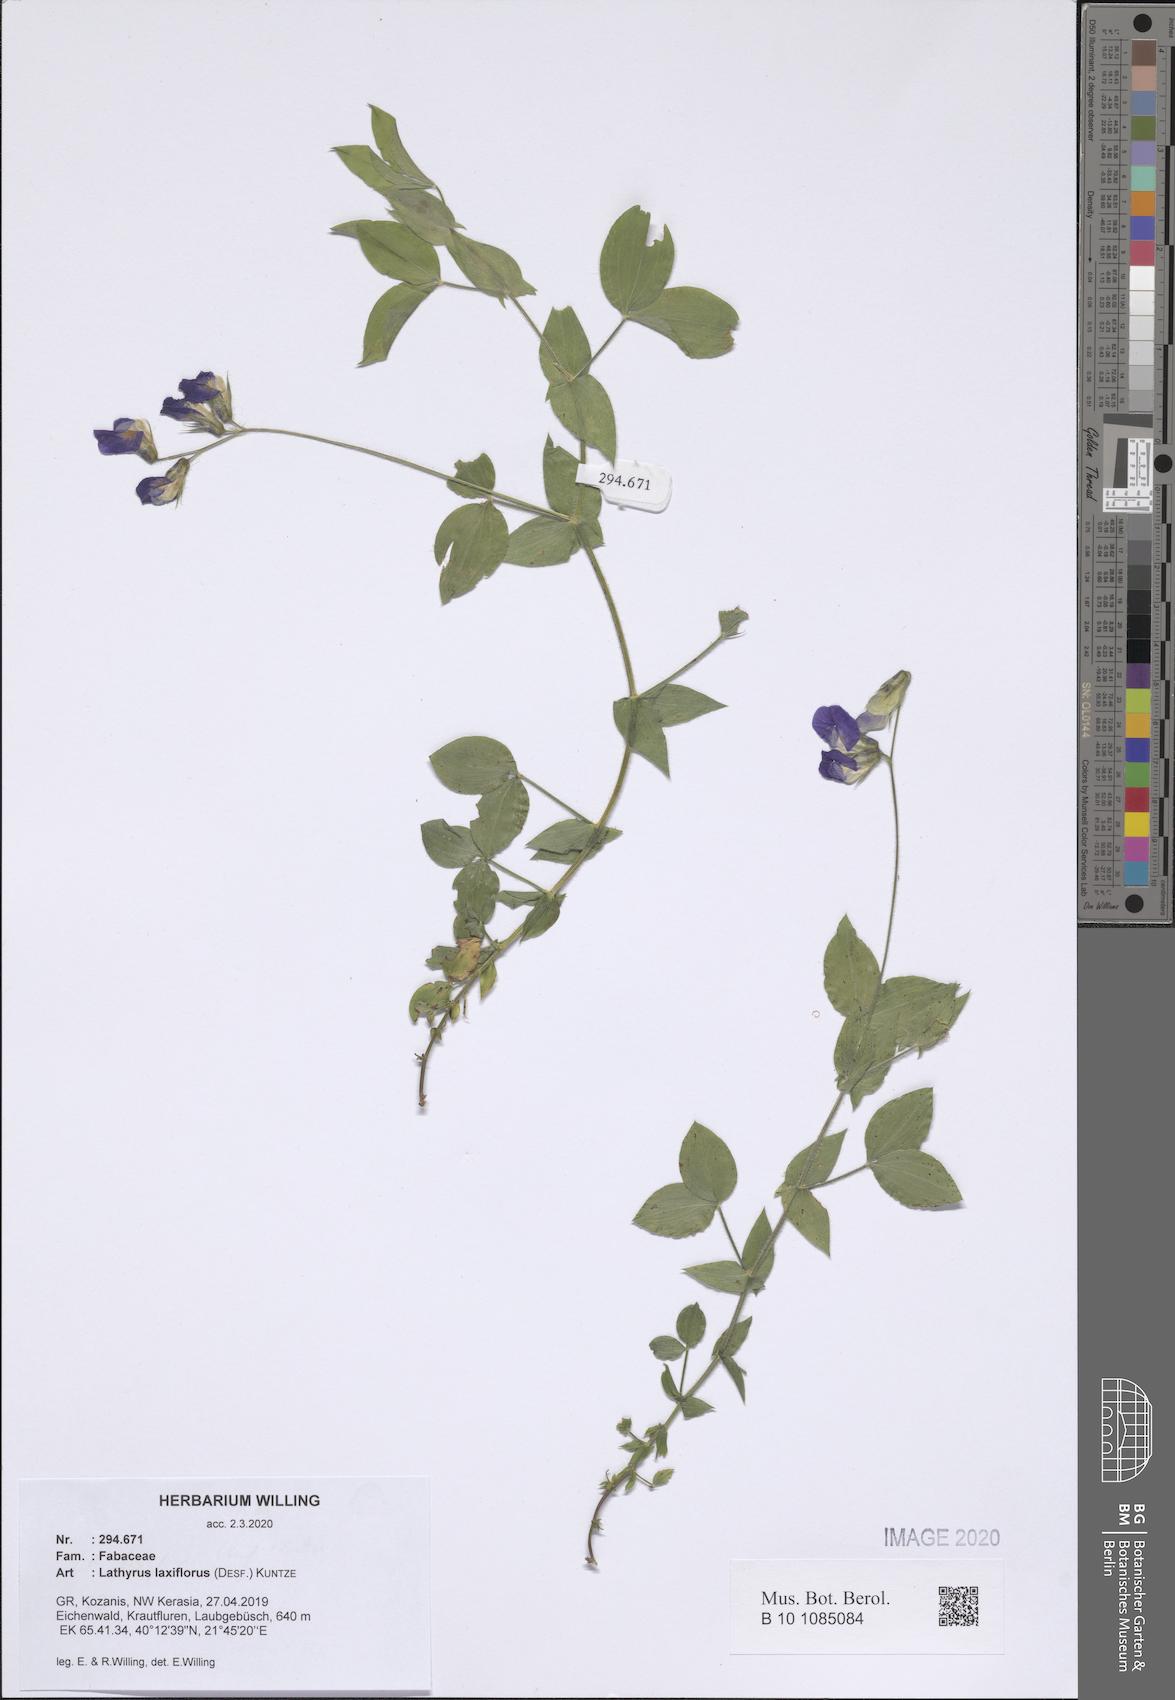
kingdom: Plantae
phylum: Tracheophyta
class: Magnoliopsida
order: Fabales
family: Fabaceae
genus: Lathyrus
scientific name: Lathyrus laxiflorus
